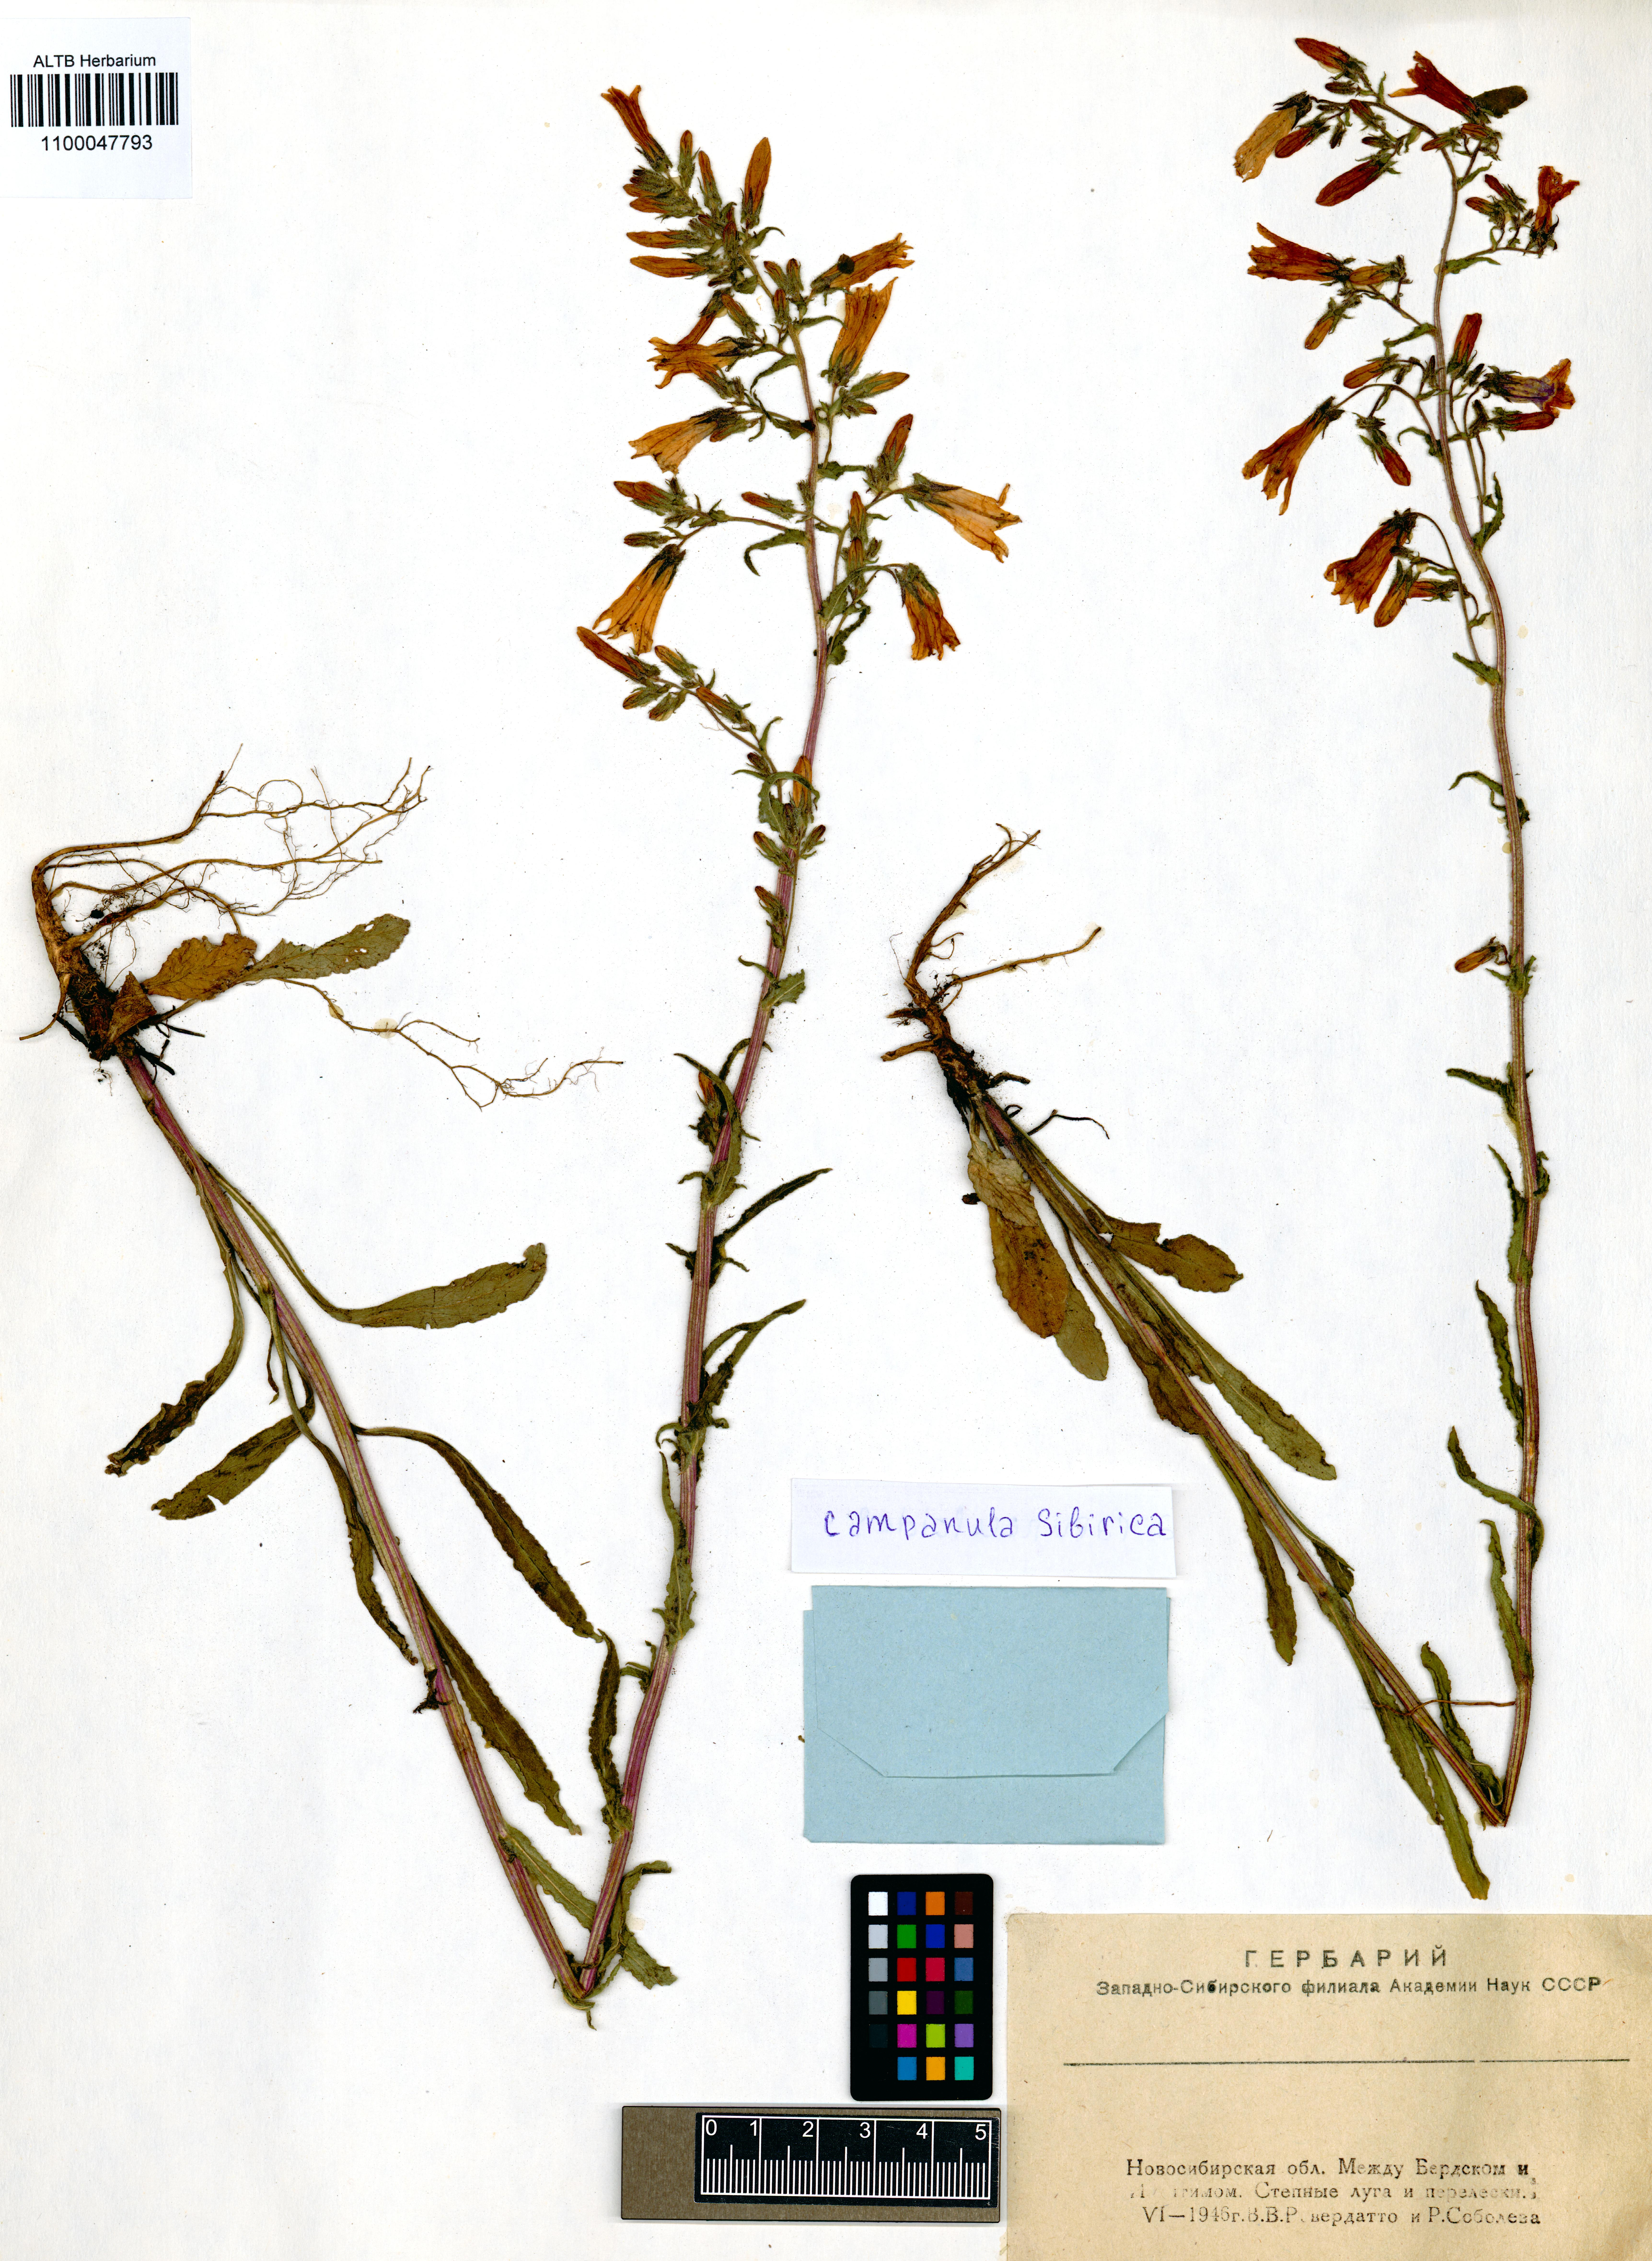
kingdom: Plantae
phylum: Tracheophyta
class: Magnoliopsida
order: Asterales
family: Campanulaceae
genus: Campanula
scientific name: Campanula sibirica
